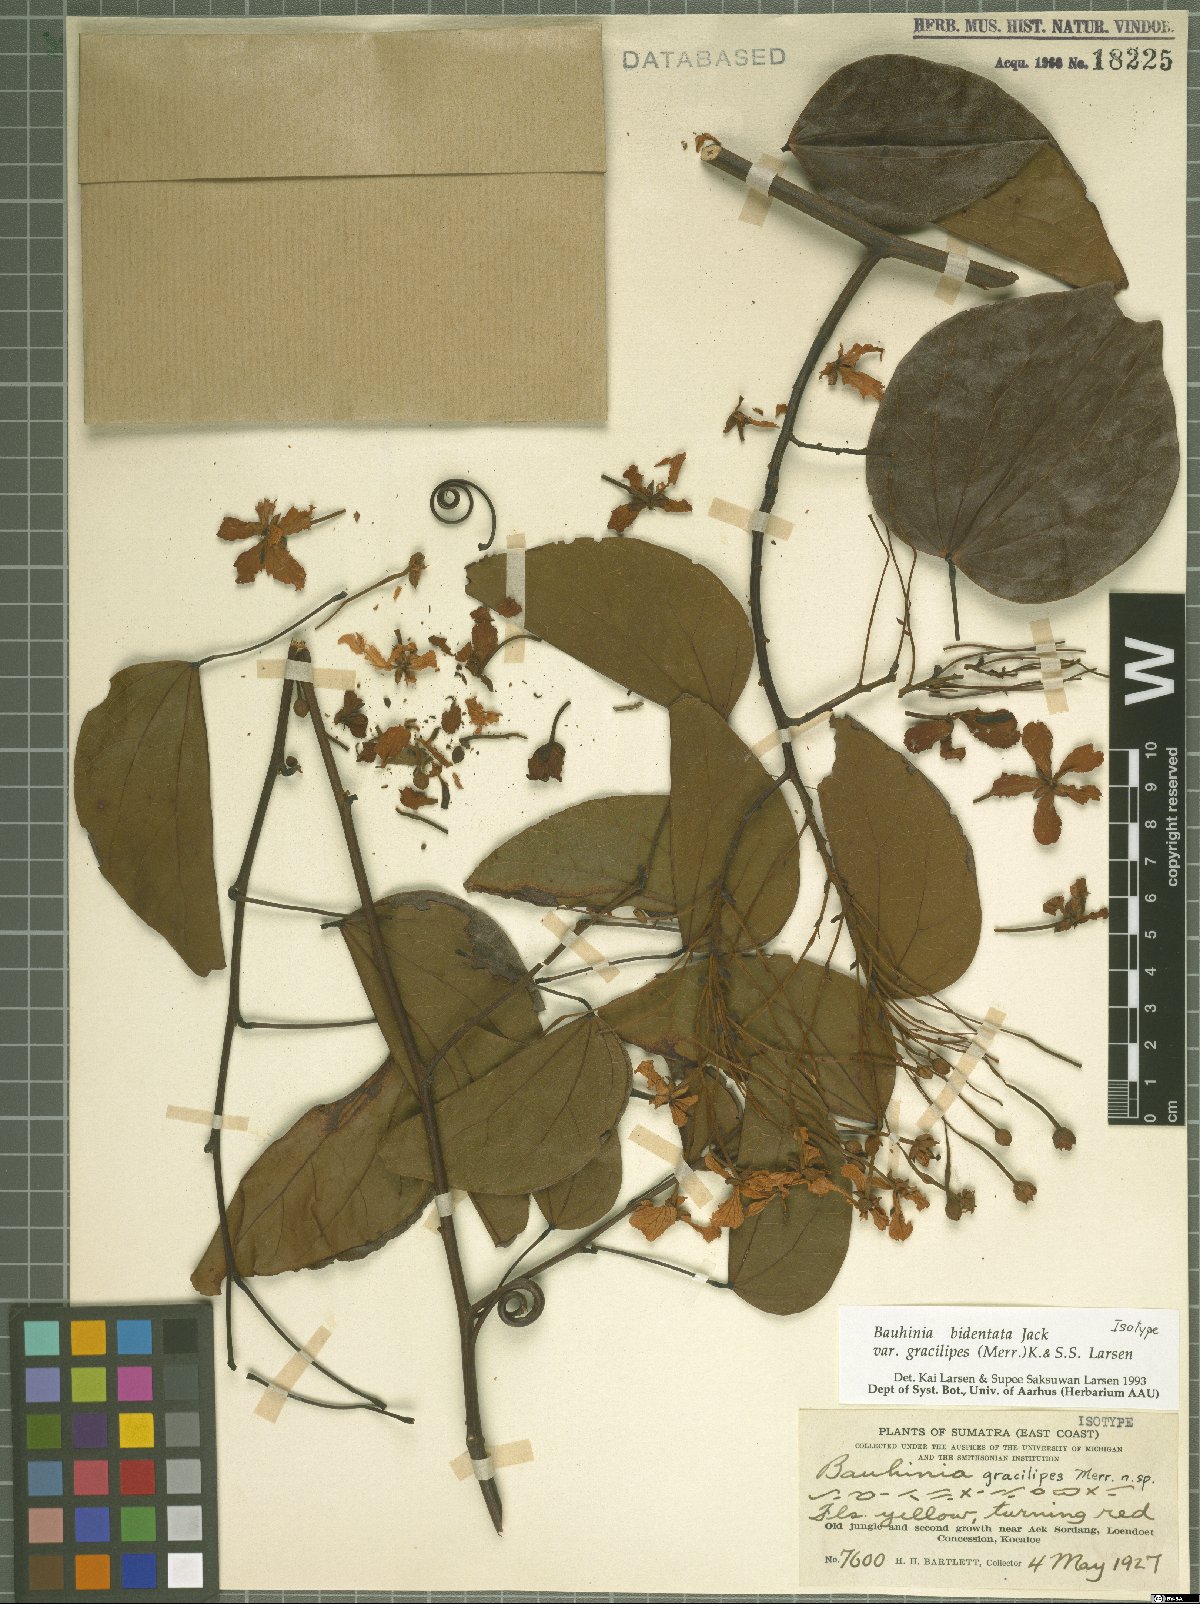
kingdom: Plantae
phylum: Tracheophyta
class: Magnoliopsida
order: Fabales
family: Fabaceae
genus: Phanera
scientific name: Phanera bidentata
